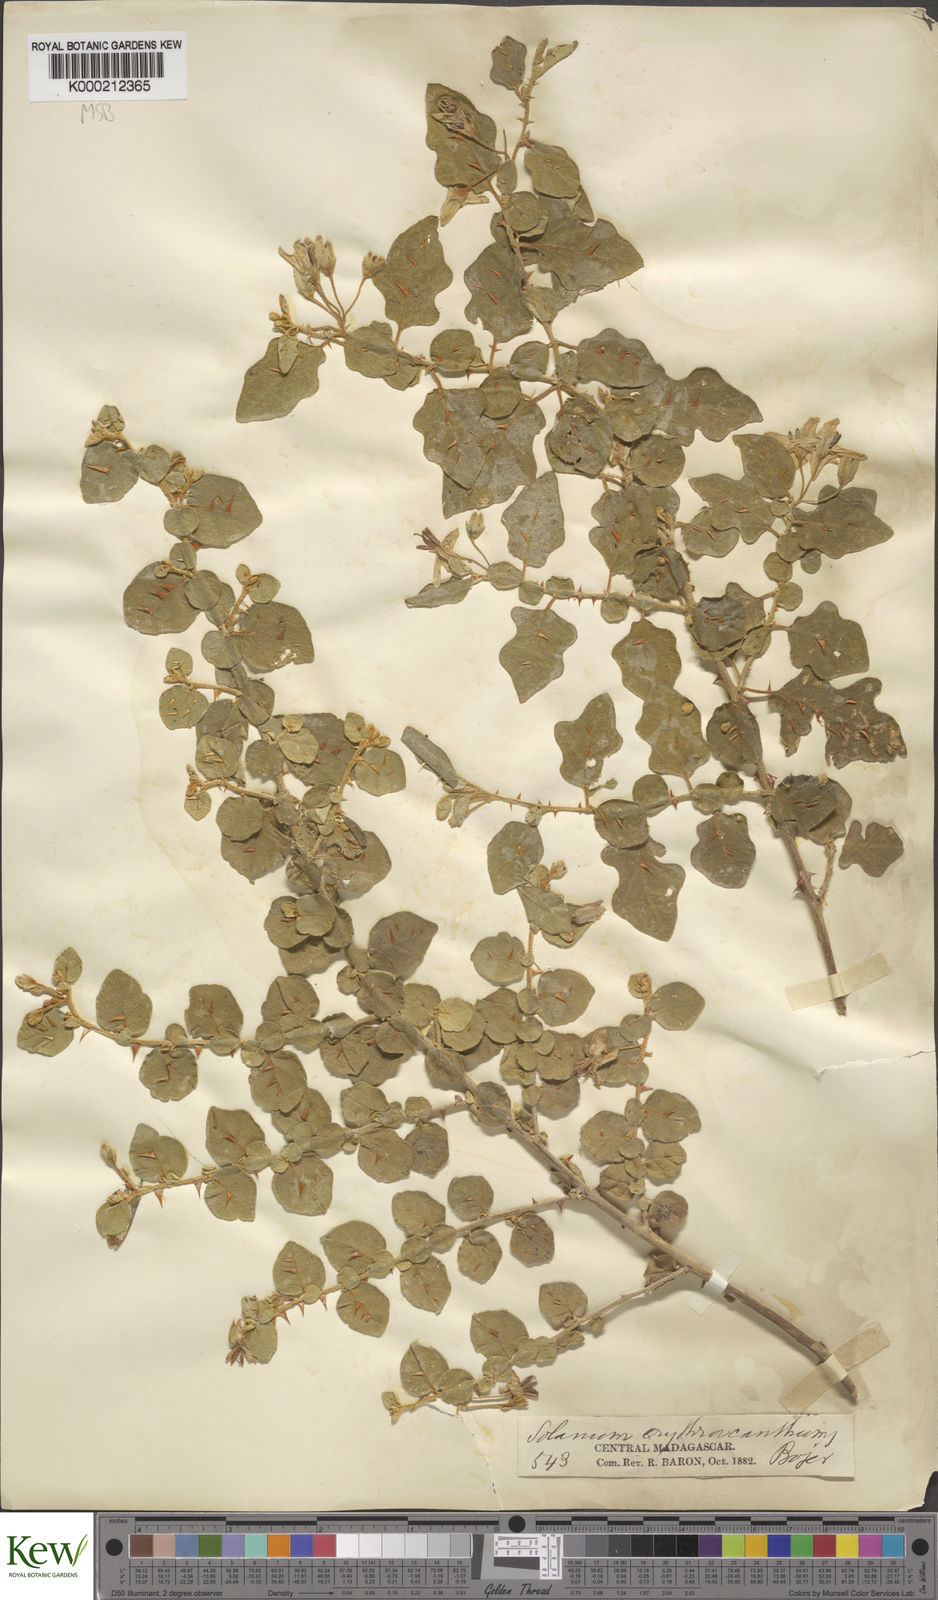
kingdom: Plantae
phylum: Tracheophyta
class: Magnoliopsida
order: Solanales
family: Solanaceae
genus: Solanum
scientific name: Solanum erythracanthum
